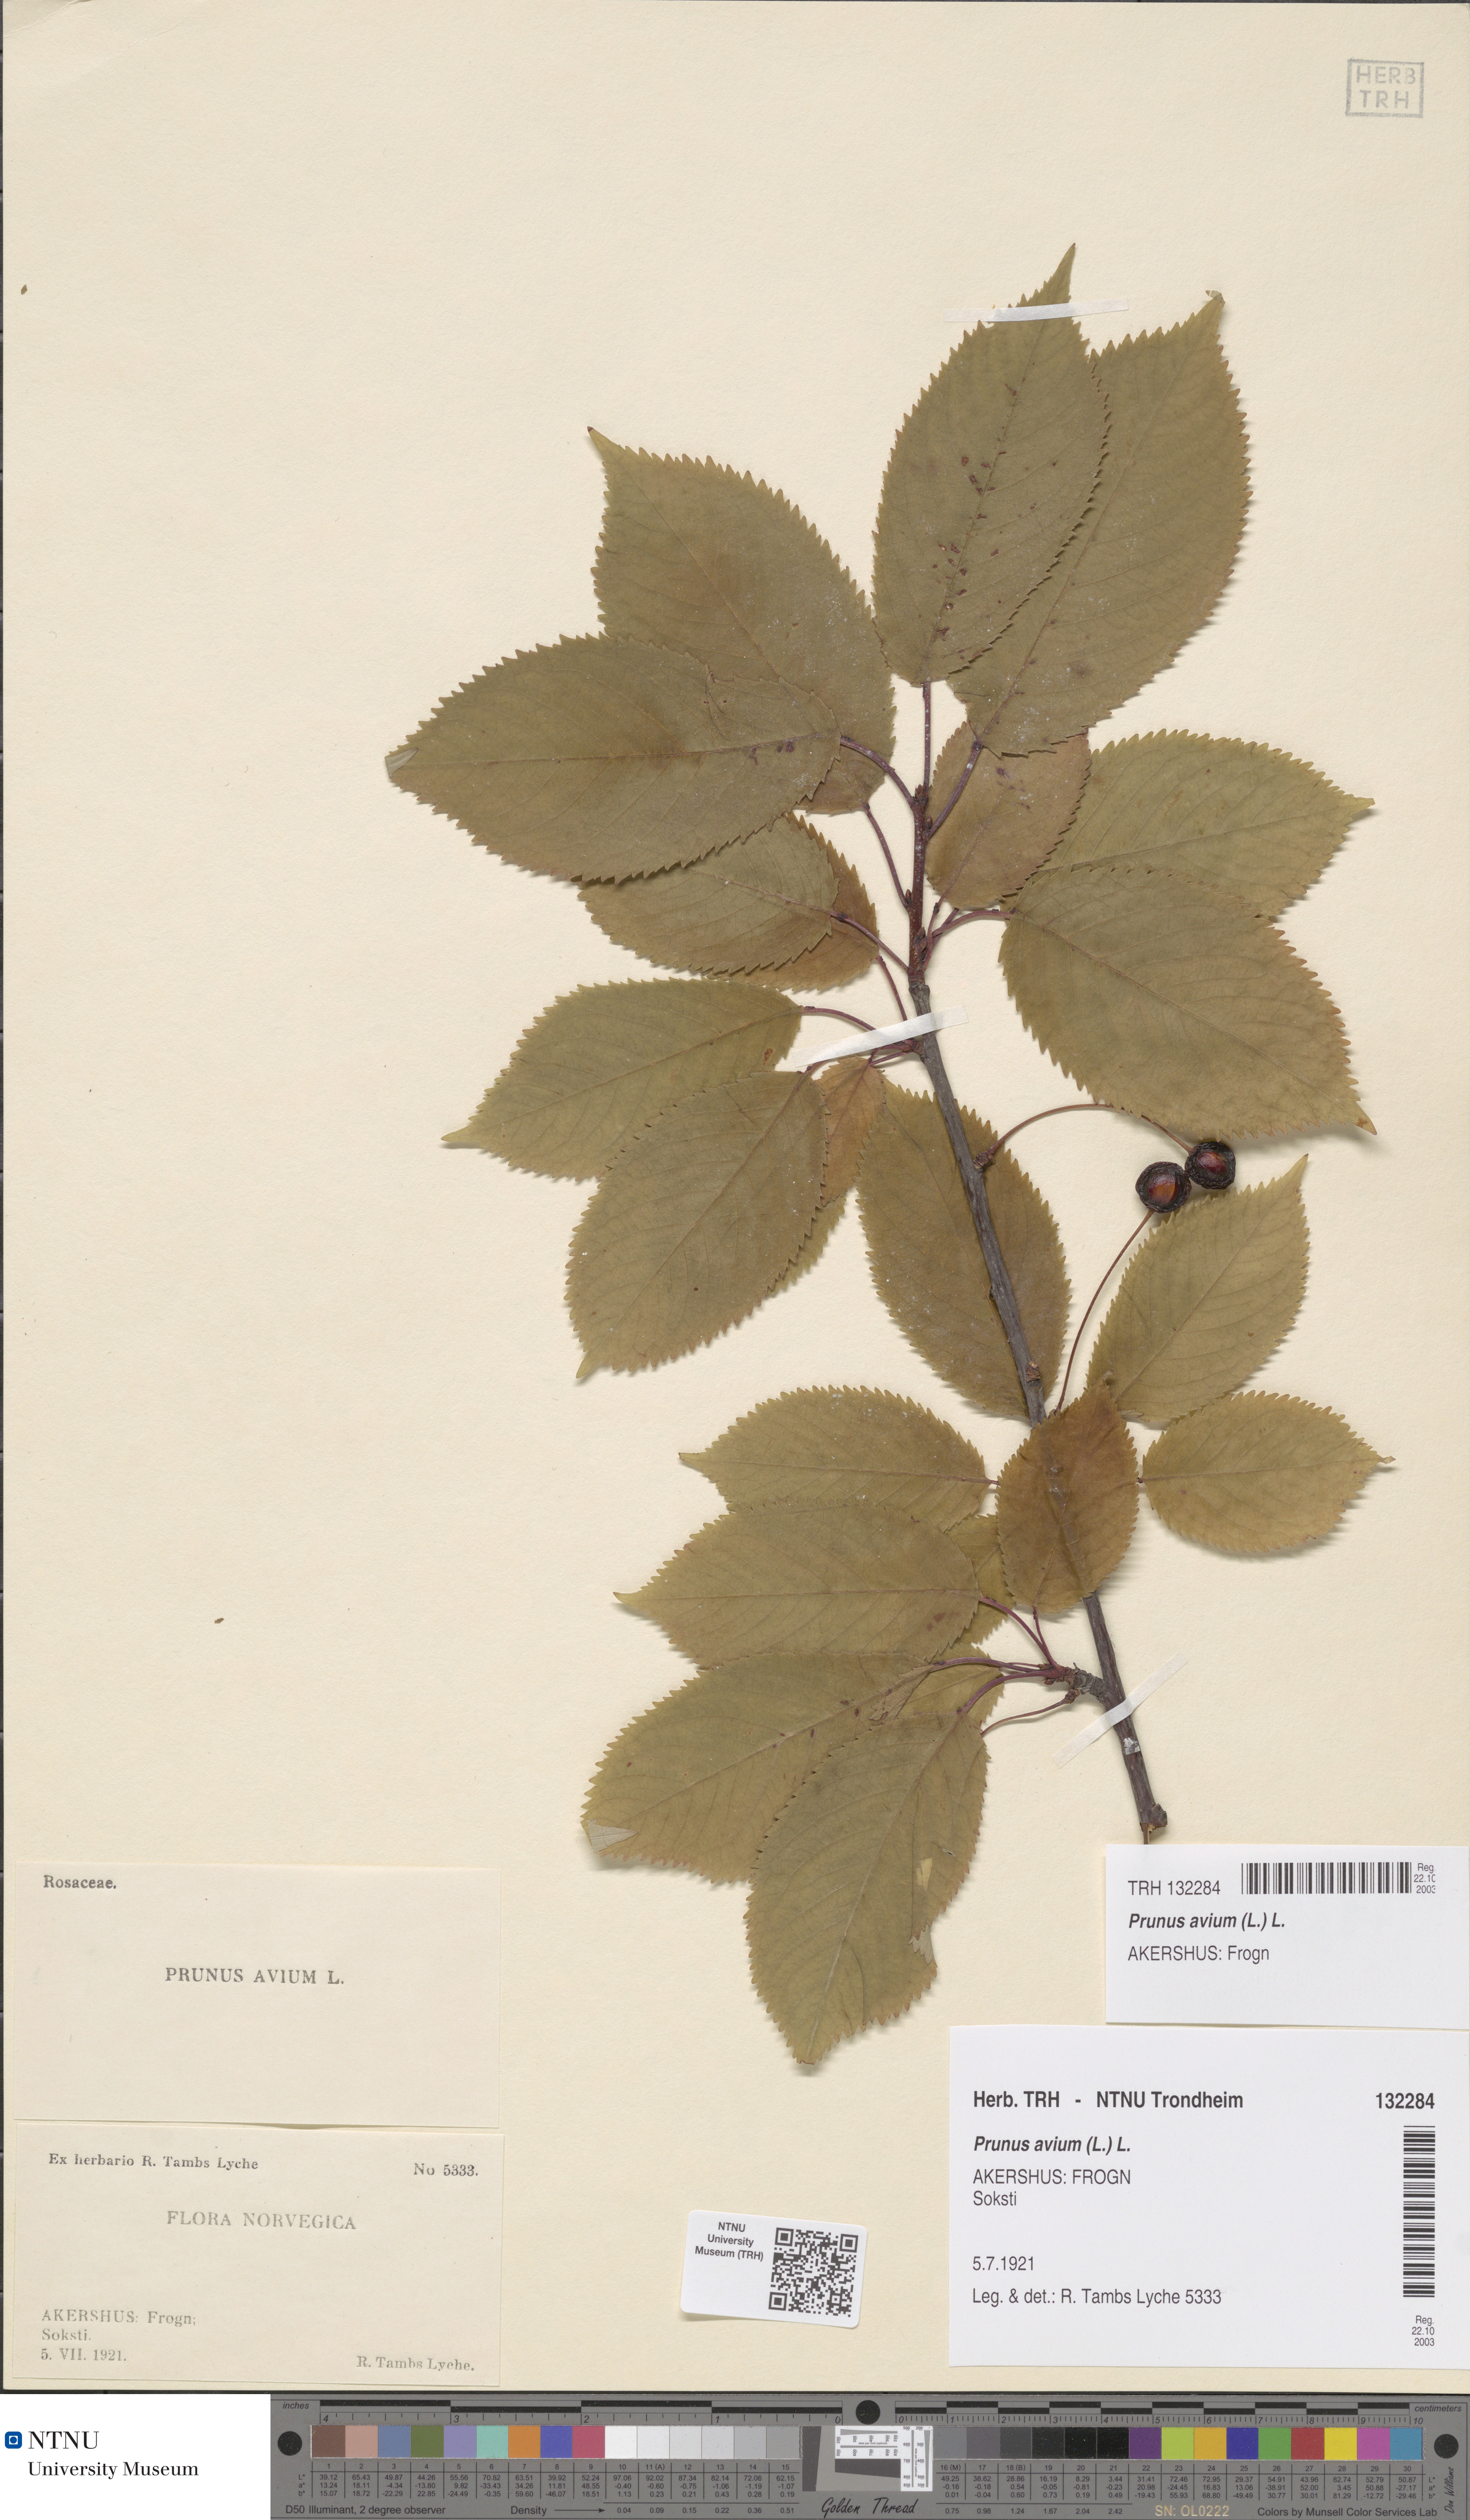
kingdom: Plantae
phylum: Tracheophyta
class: Magnoliopsida
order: Rosales
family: Rosaceae
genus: Prunus
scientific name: Prunus avium
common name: Sweet cherry
